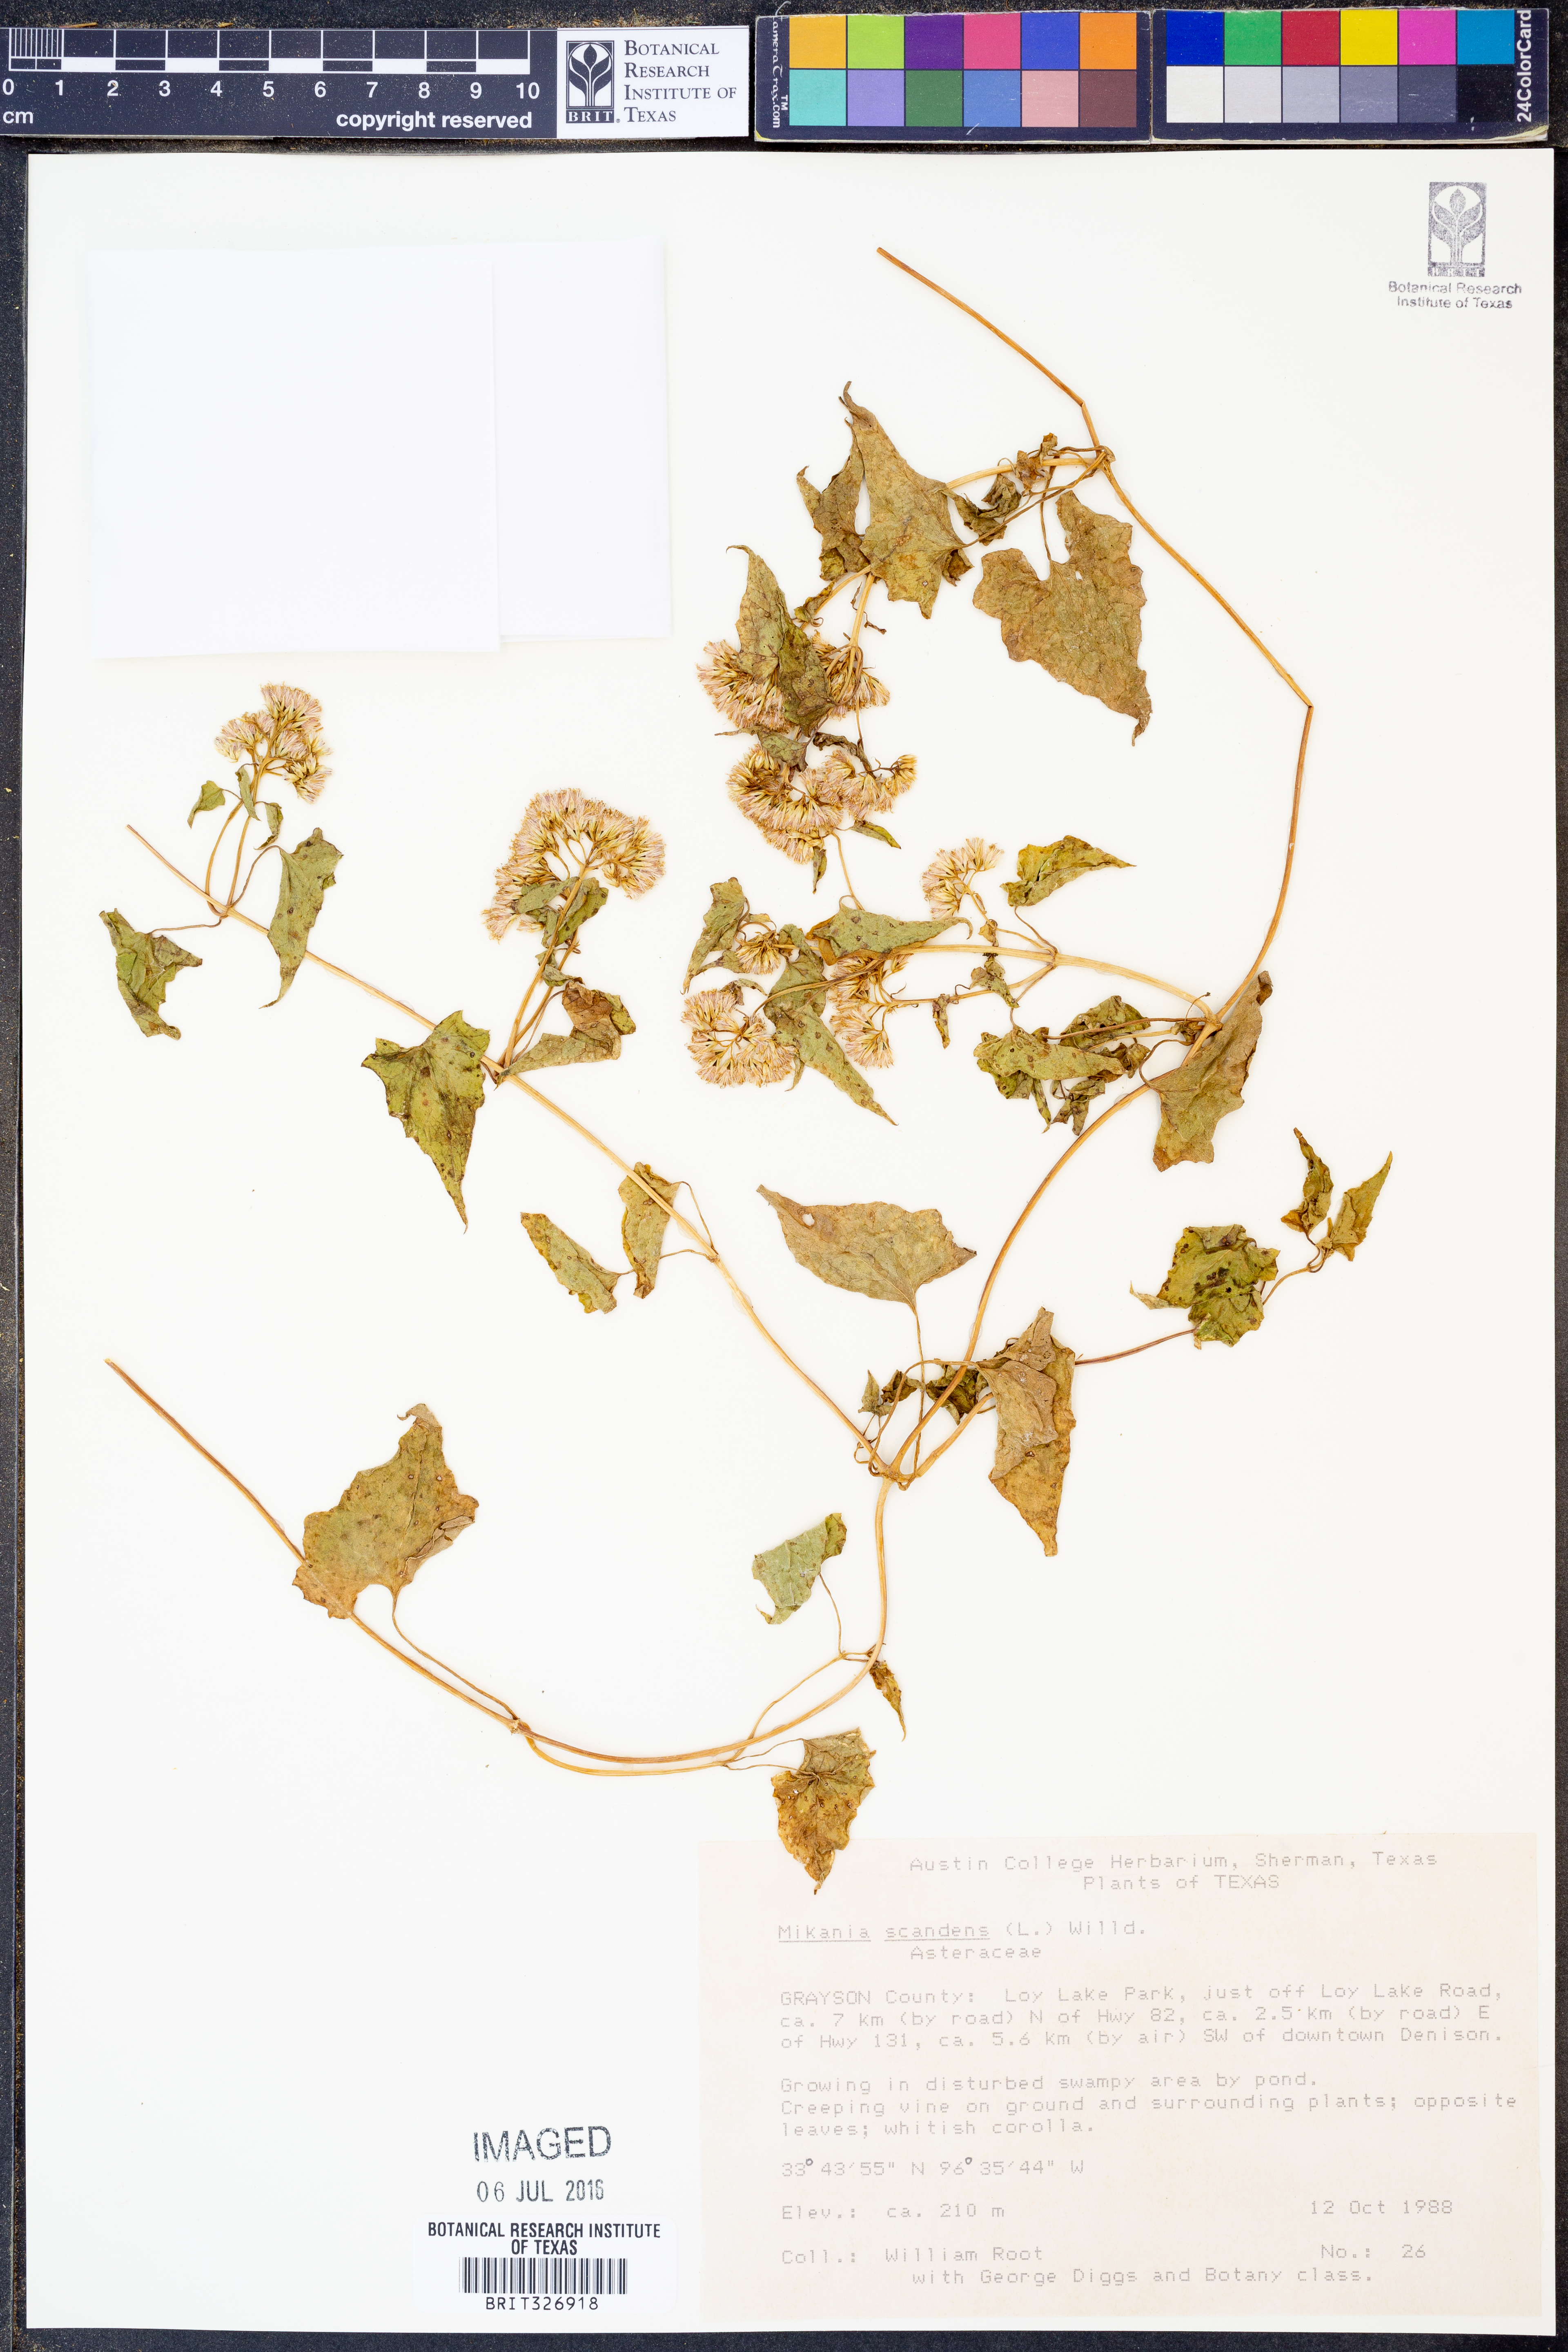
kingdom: Plantae
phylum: Tracheophyta
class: Magnoliopsida
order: Asterales
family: Asteraceae
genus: Mikania
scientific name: Mikania scandens
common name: Climbing hempvine
